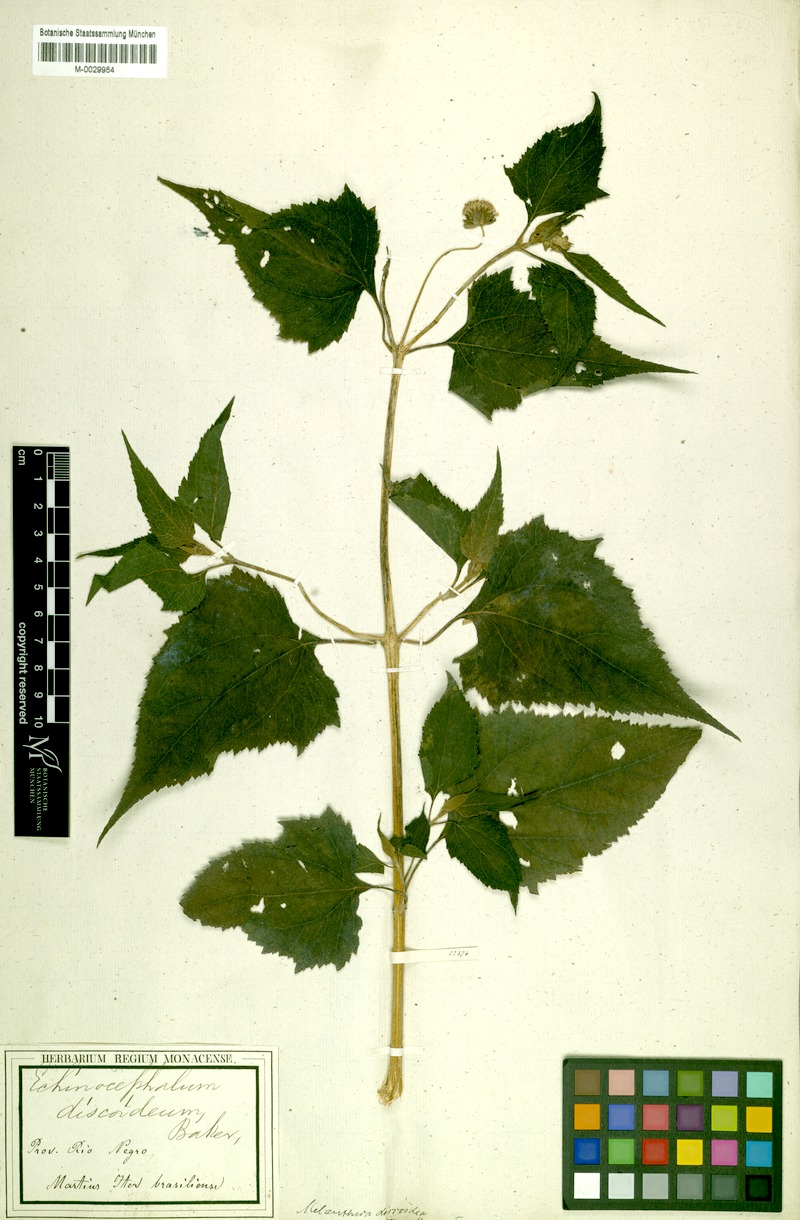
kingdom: Plantae
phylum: Tracheophyta
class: Magnoliopsida
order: Asterales
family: Asteraceae
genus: Melanthera
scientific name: Melanthera nivea
